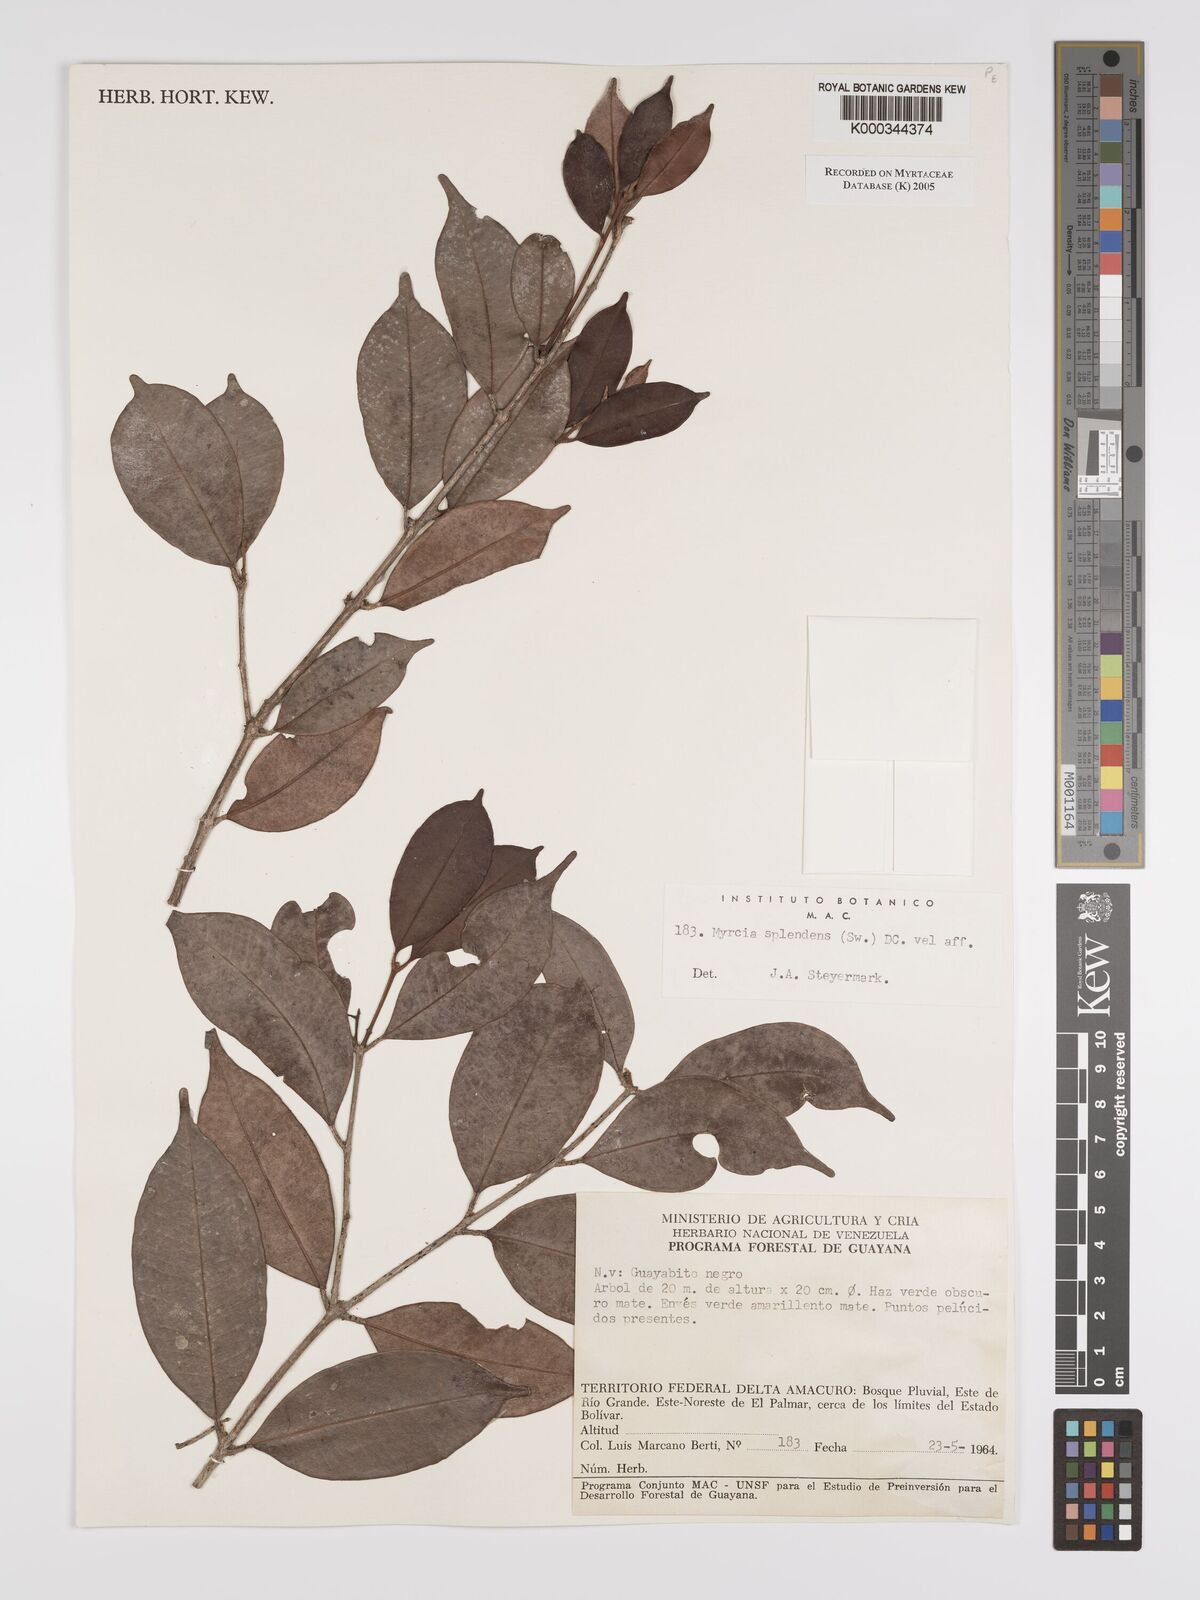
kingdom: Plantae
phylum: Tracheophyta
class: Magnoliopsida
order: Myrtales
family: Myrtaceae
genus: Myrcia
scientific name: Myrcia splendens
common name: Surinam cherry
